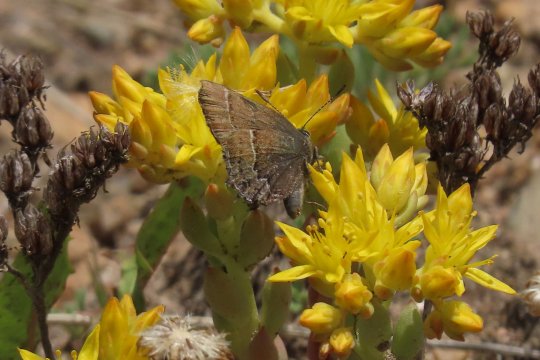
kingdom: Animalia
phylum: Arthropoda
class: Insecta
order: Lepidoptera
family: Lycaenidae
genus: Mitoura
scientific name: Mitoura spinetorum
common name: Thicket Hairstreak
